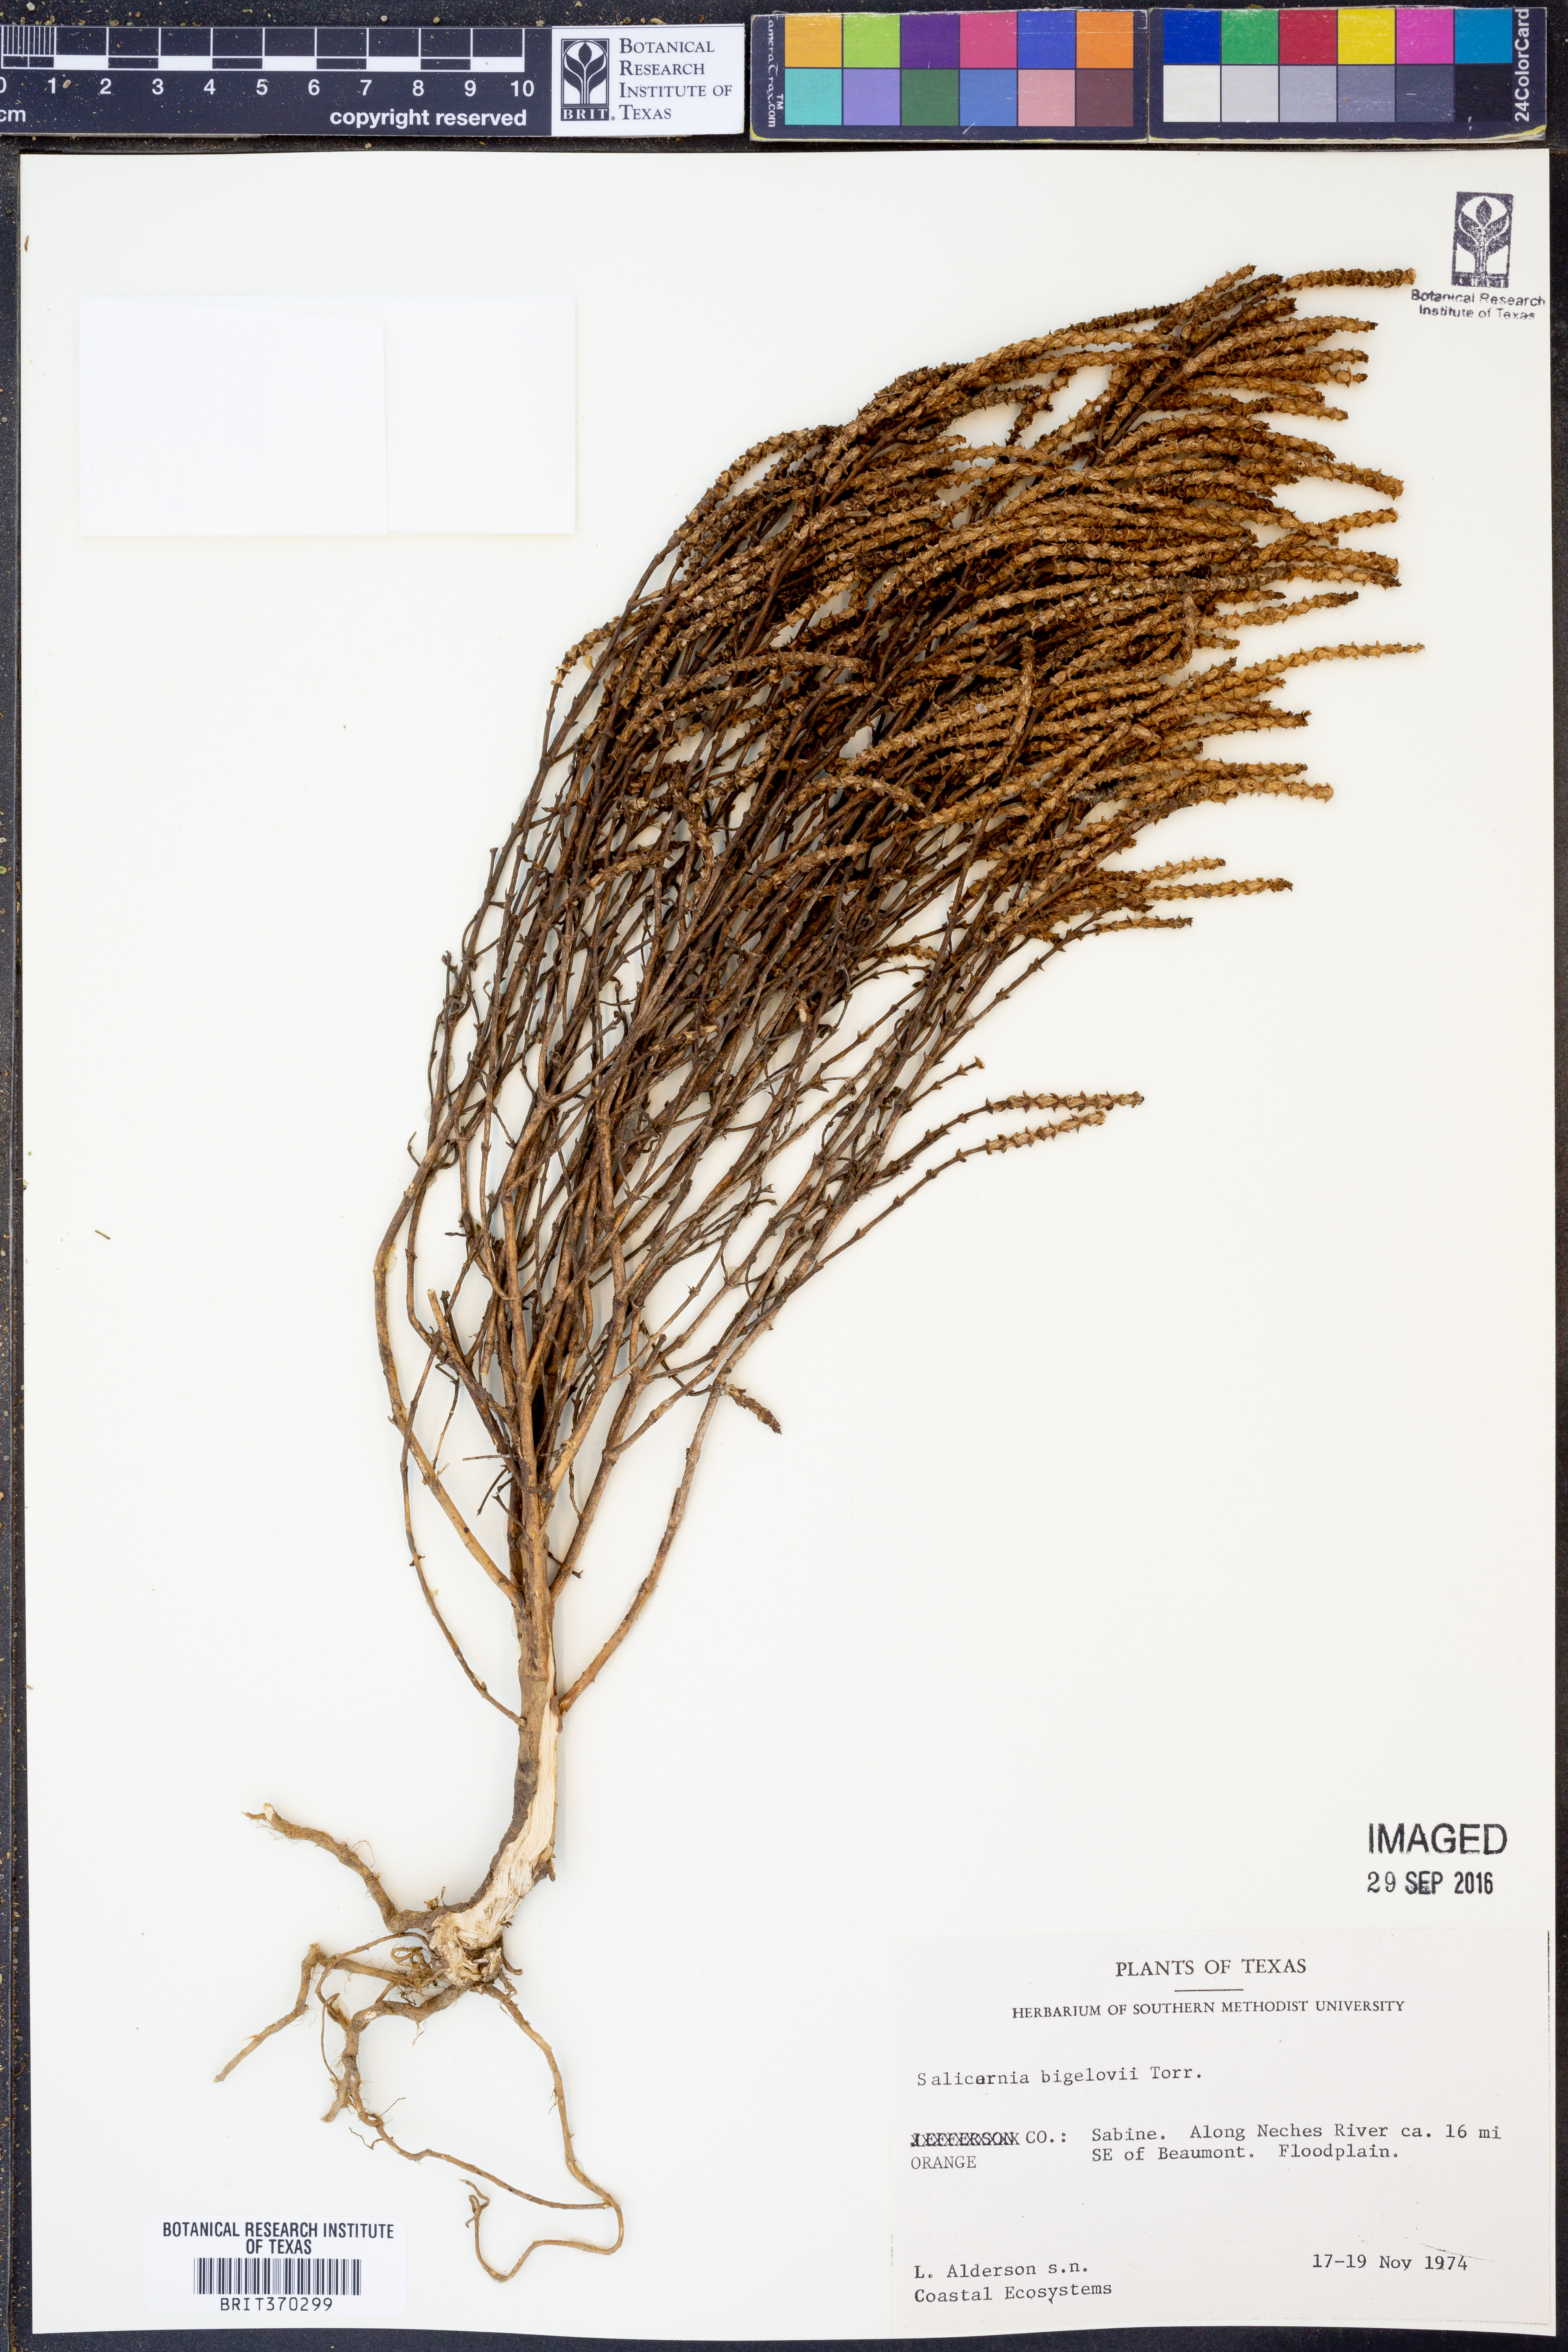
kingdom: Plantae
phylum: Tracheophyta
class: Magnoliopsida
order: Caryophyllales
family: Amaranthaceae
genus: Salicornia
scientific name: Salicornia bigelovii
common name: Dwarf glasswort
